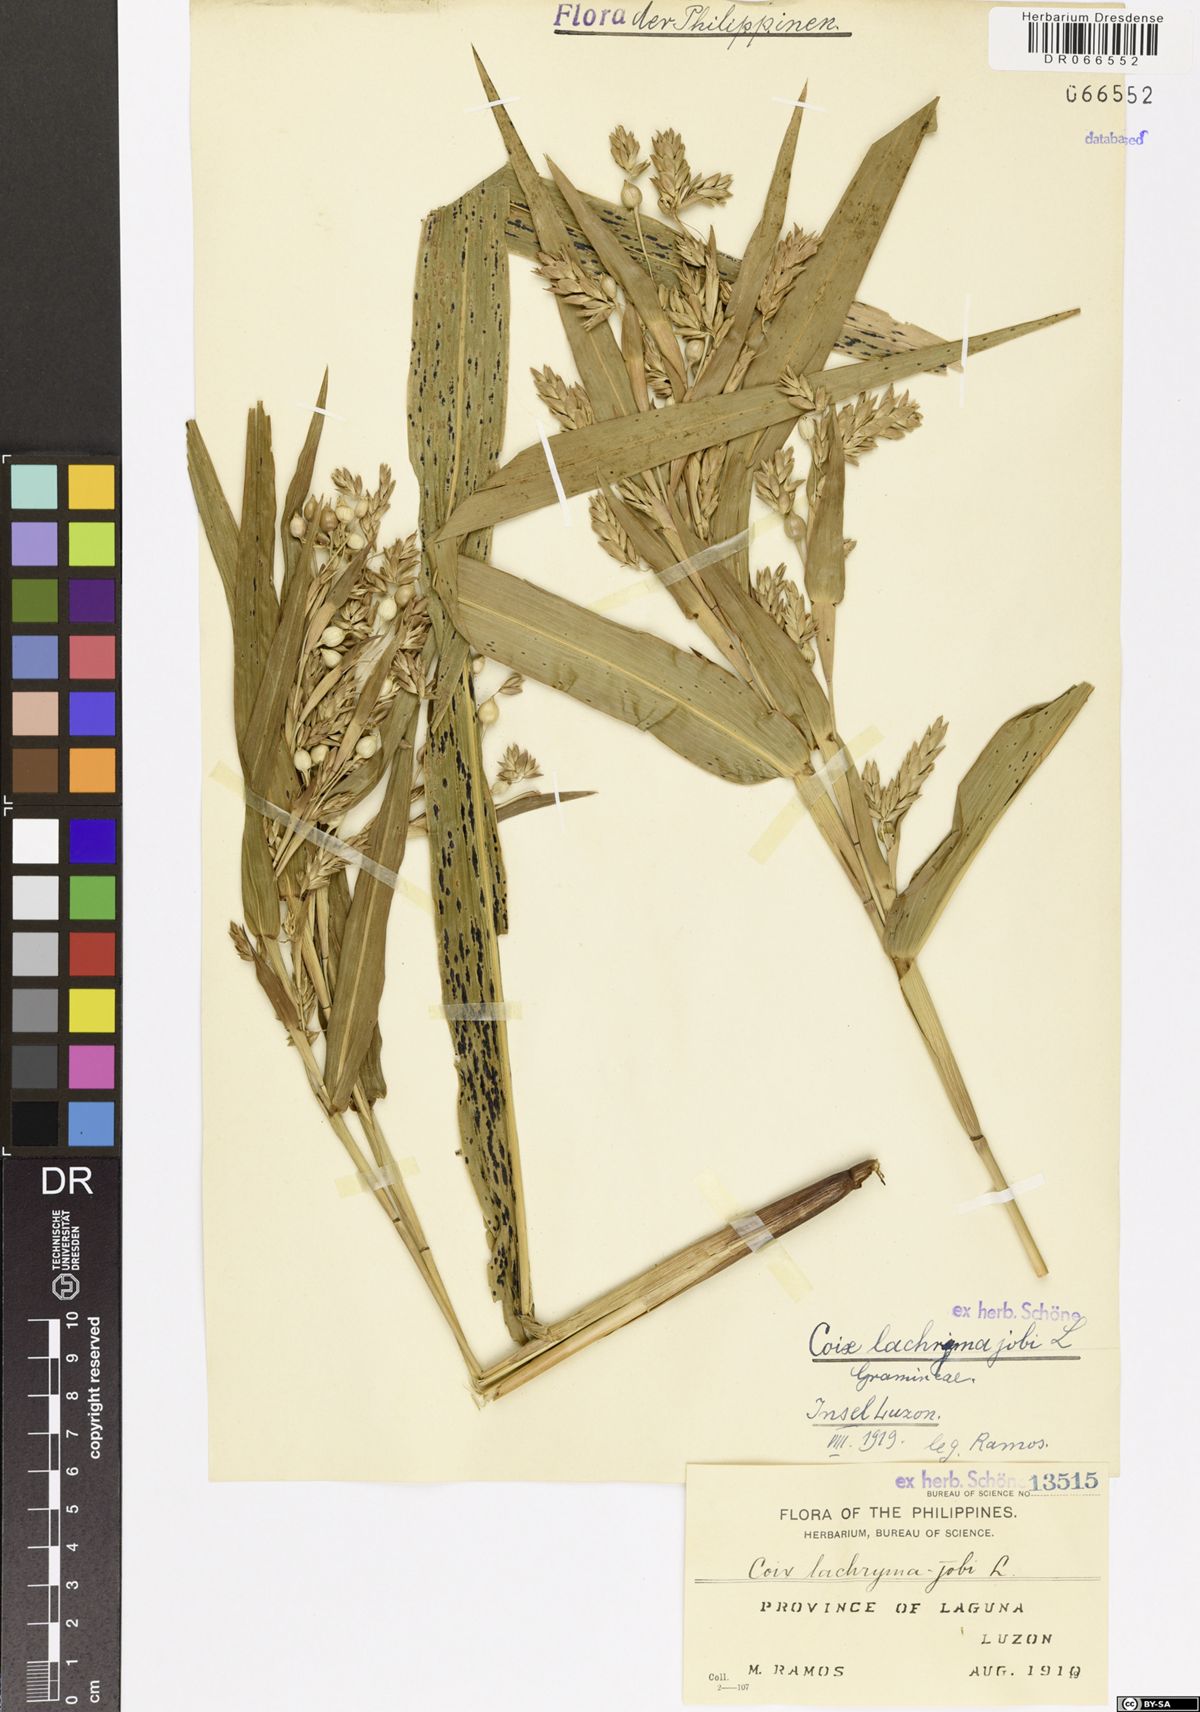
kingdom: Plantae
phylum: Tracheophyta
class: Liliopsida
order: Poales
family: Poaceae
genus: Coix
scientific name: Coix lacryma-jobi
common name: Job's tears
